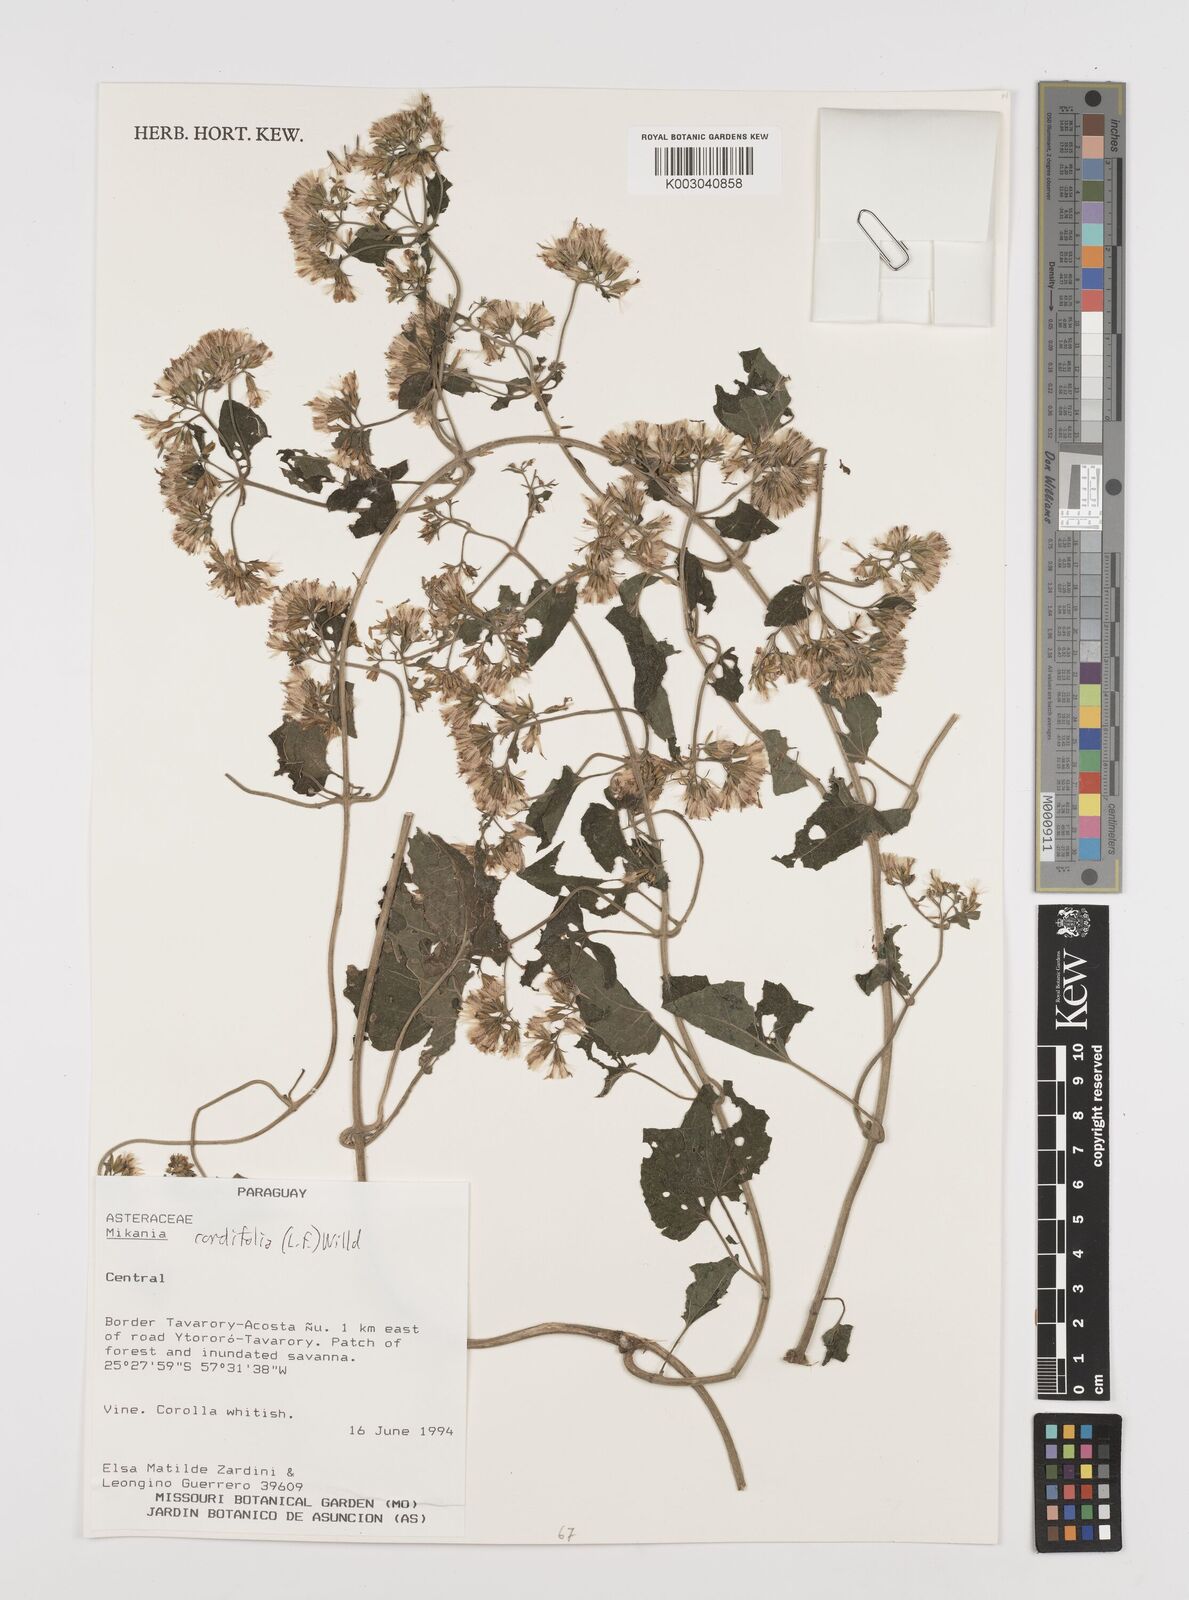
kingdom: Plantae
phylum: Tracheophyta
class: Magnoliopsida
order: Asterales
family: Asteraceae
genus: Mikania
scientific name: Mikania cordifolia
